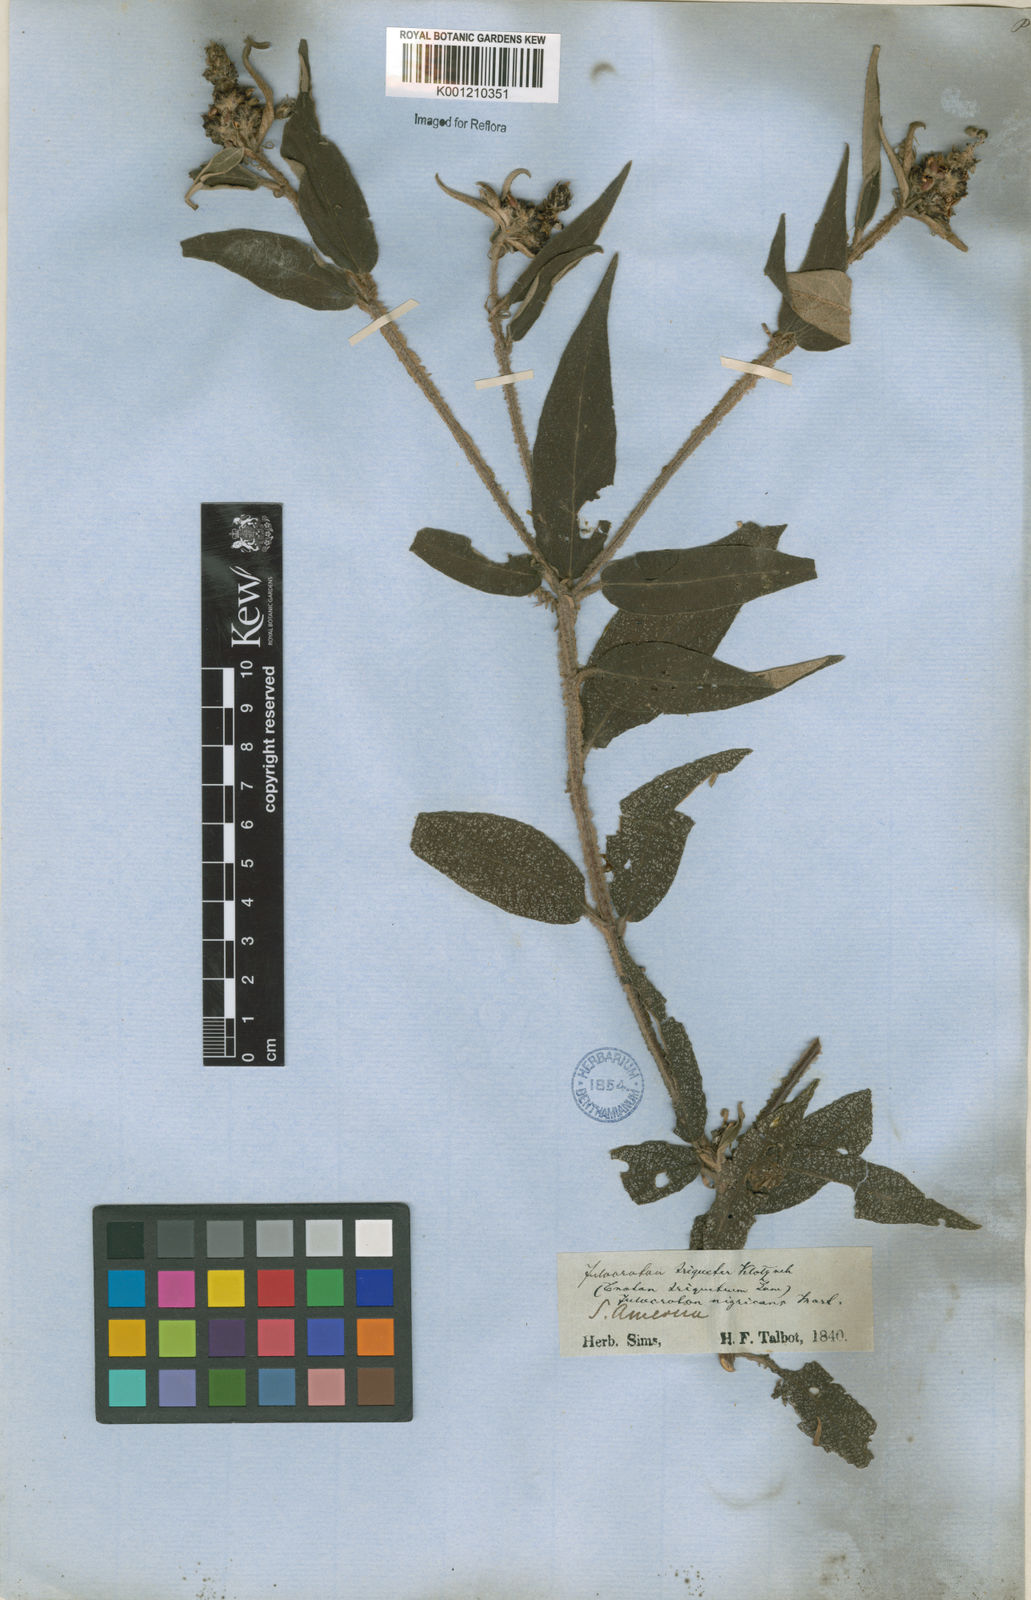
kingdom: Plantae
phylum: Tracheophyta
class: Magnoliopsida
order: Malpighiales
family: Euphorbiaceae
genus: Croton
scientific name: Croton gnaphaloides
